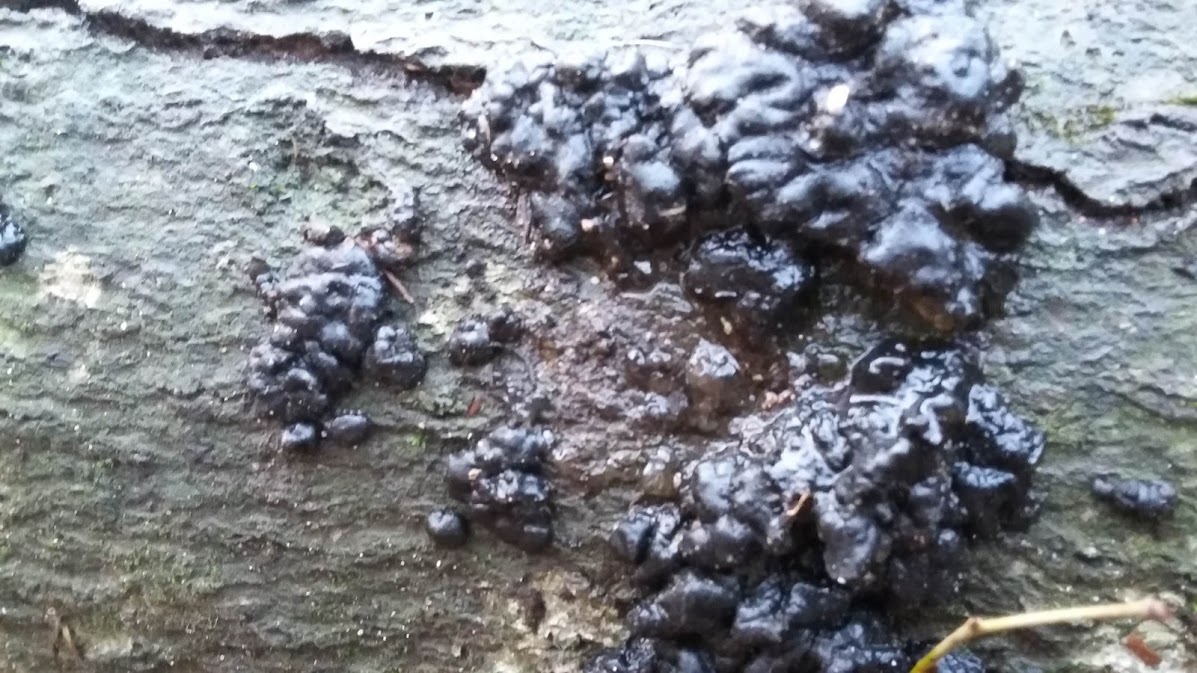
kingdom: Fungi
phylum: Basidiomycota
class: Agaricomycetes
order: Auriculariales
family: Auriculariaceae
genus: Exidia
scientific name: Exidia nigricans
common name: almindelig bævretop
